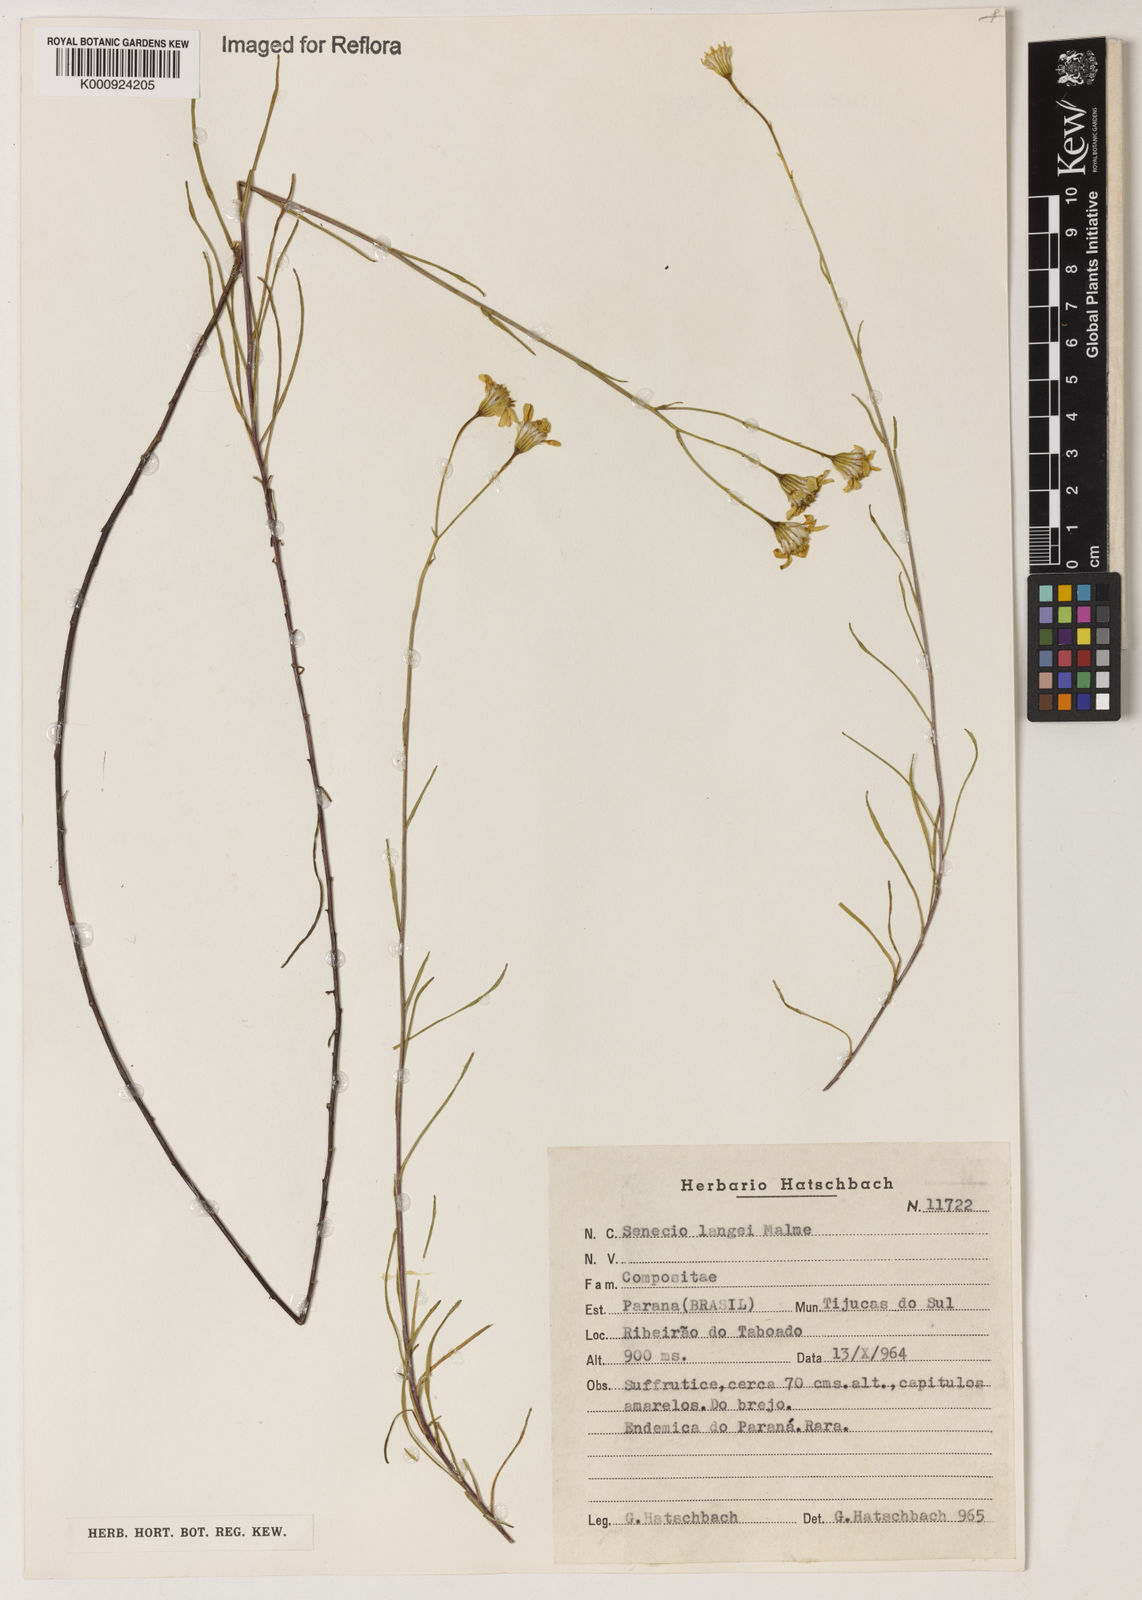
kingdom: Plantae
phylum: Tracheophyta
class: Magnoliopsida
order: Asterales
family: Asteraceae
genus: Senecio
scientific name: Senecio langei
